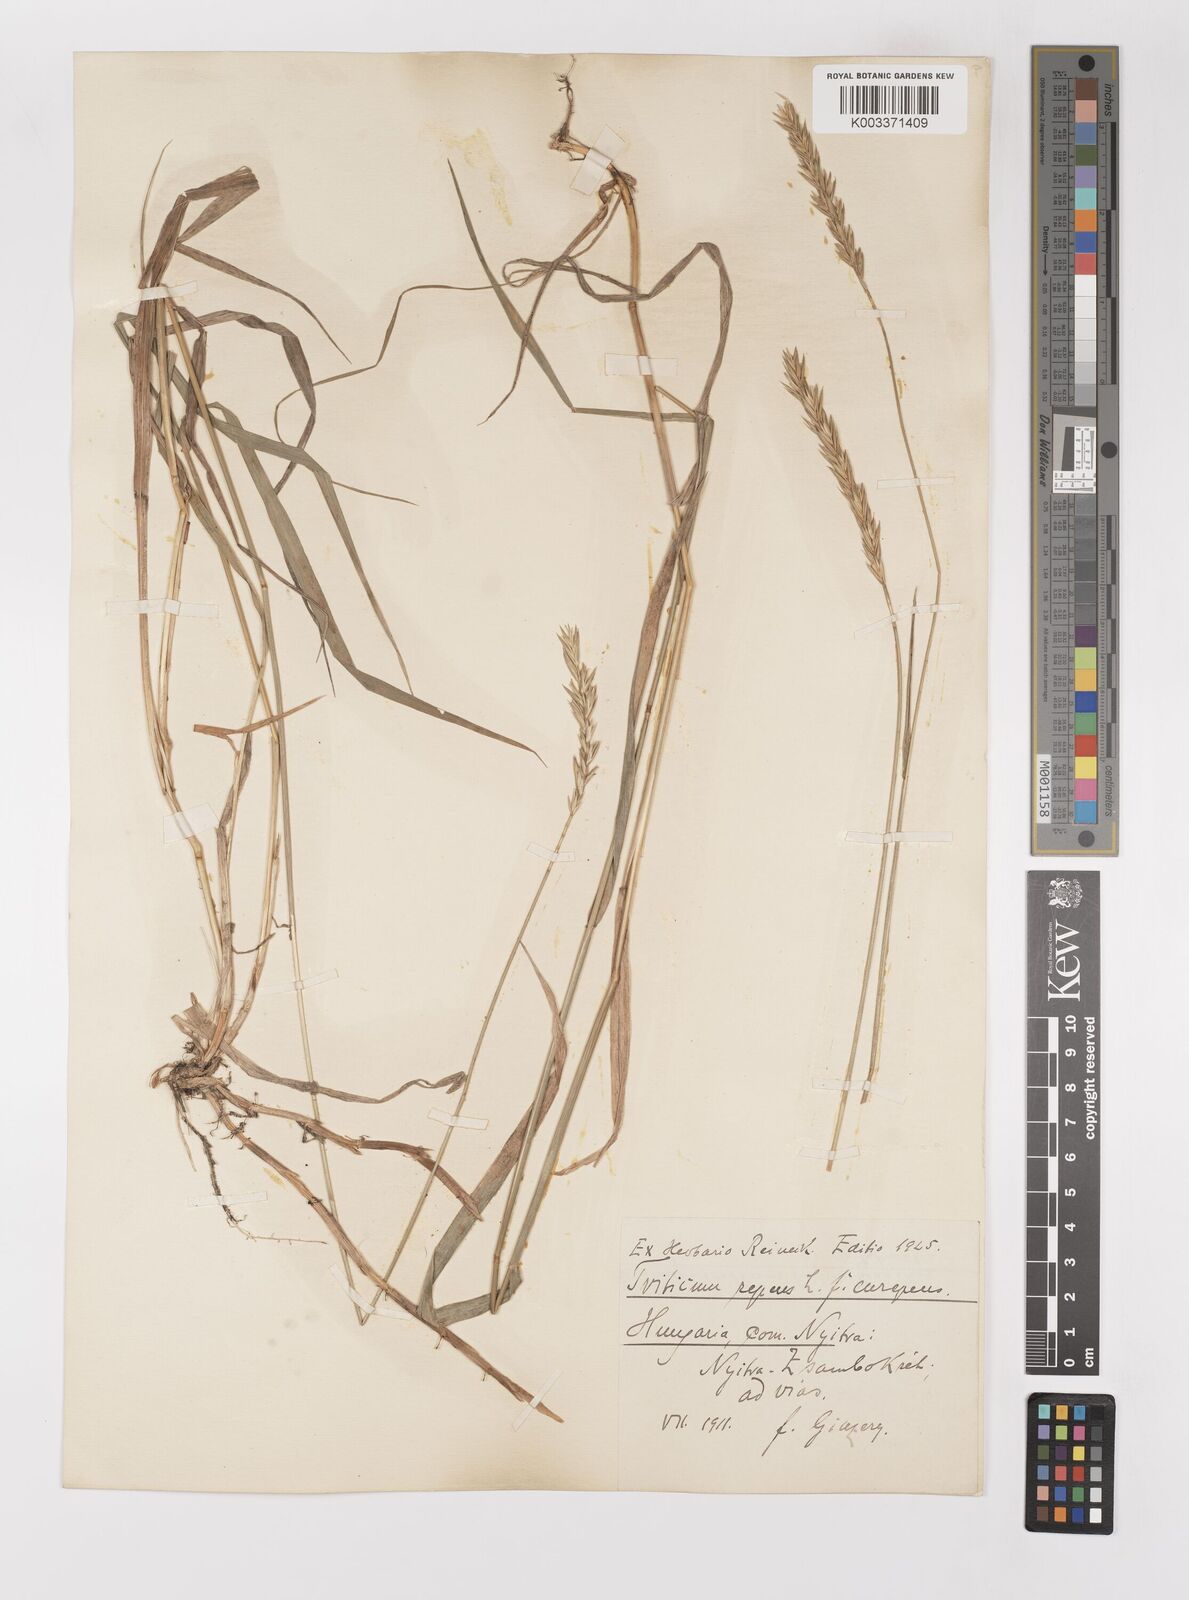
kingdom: Plantae
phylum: Tracheophyta
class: Liliopsida
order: Poales
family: Poaceae
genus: Elymus
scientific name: Elymus repens
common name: Quackgrass
